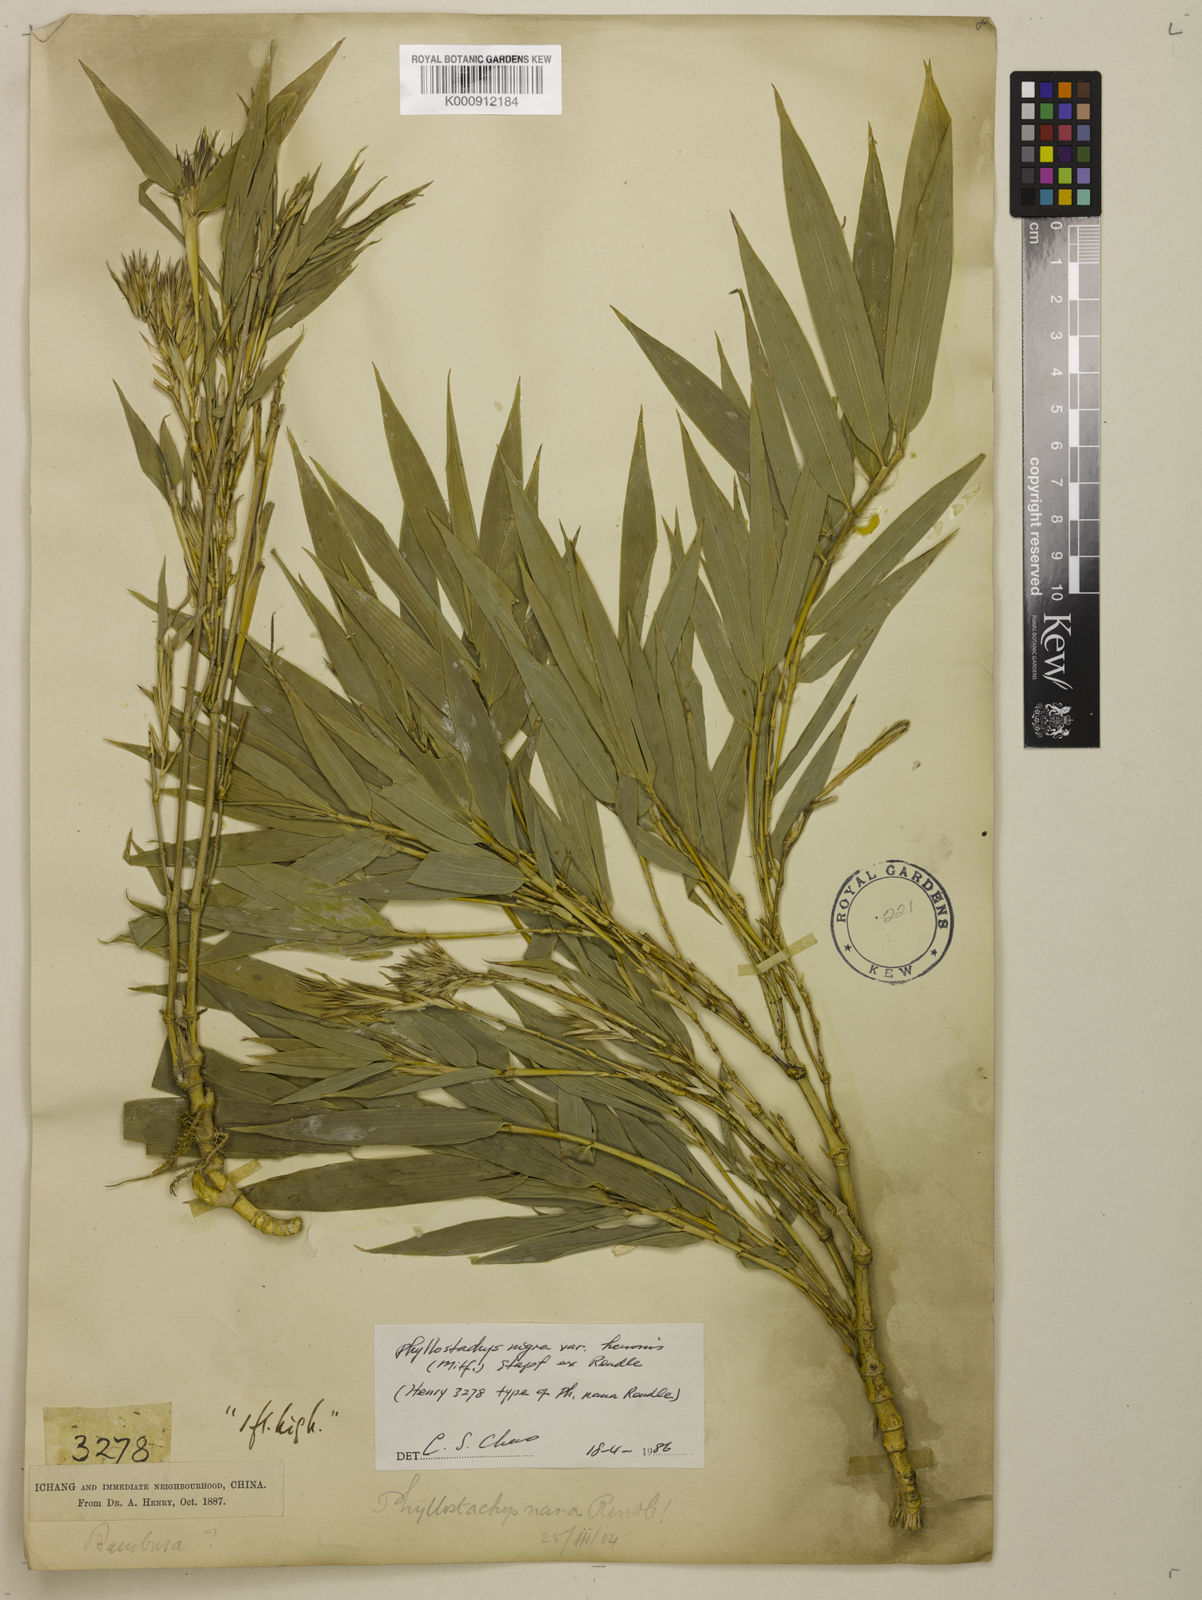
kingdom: Plantae
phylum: Tracheophyta
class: Liliopsida
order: Poales
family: Poaceae
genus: Phyllostachys
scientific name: Phyllostachys nigra
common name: Black bamboo
